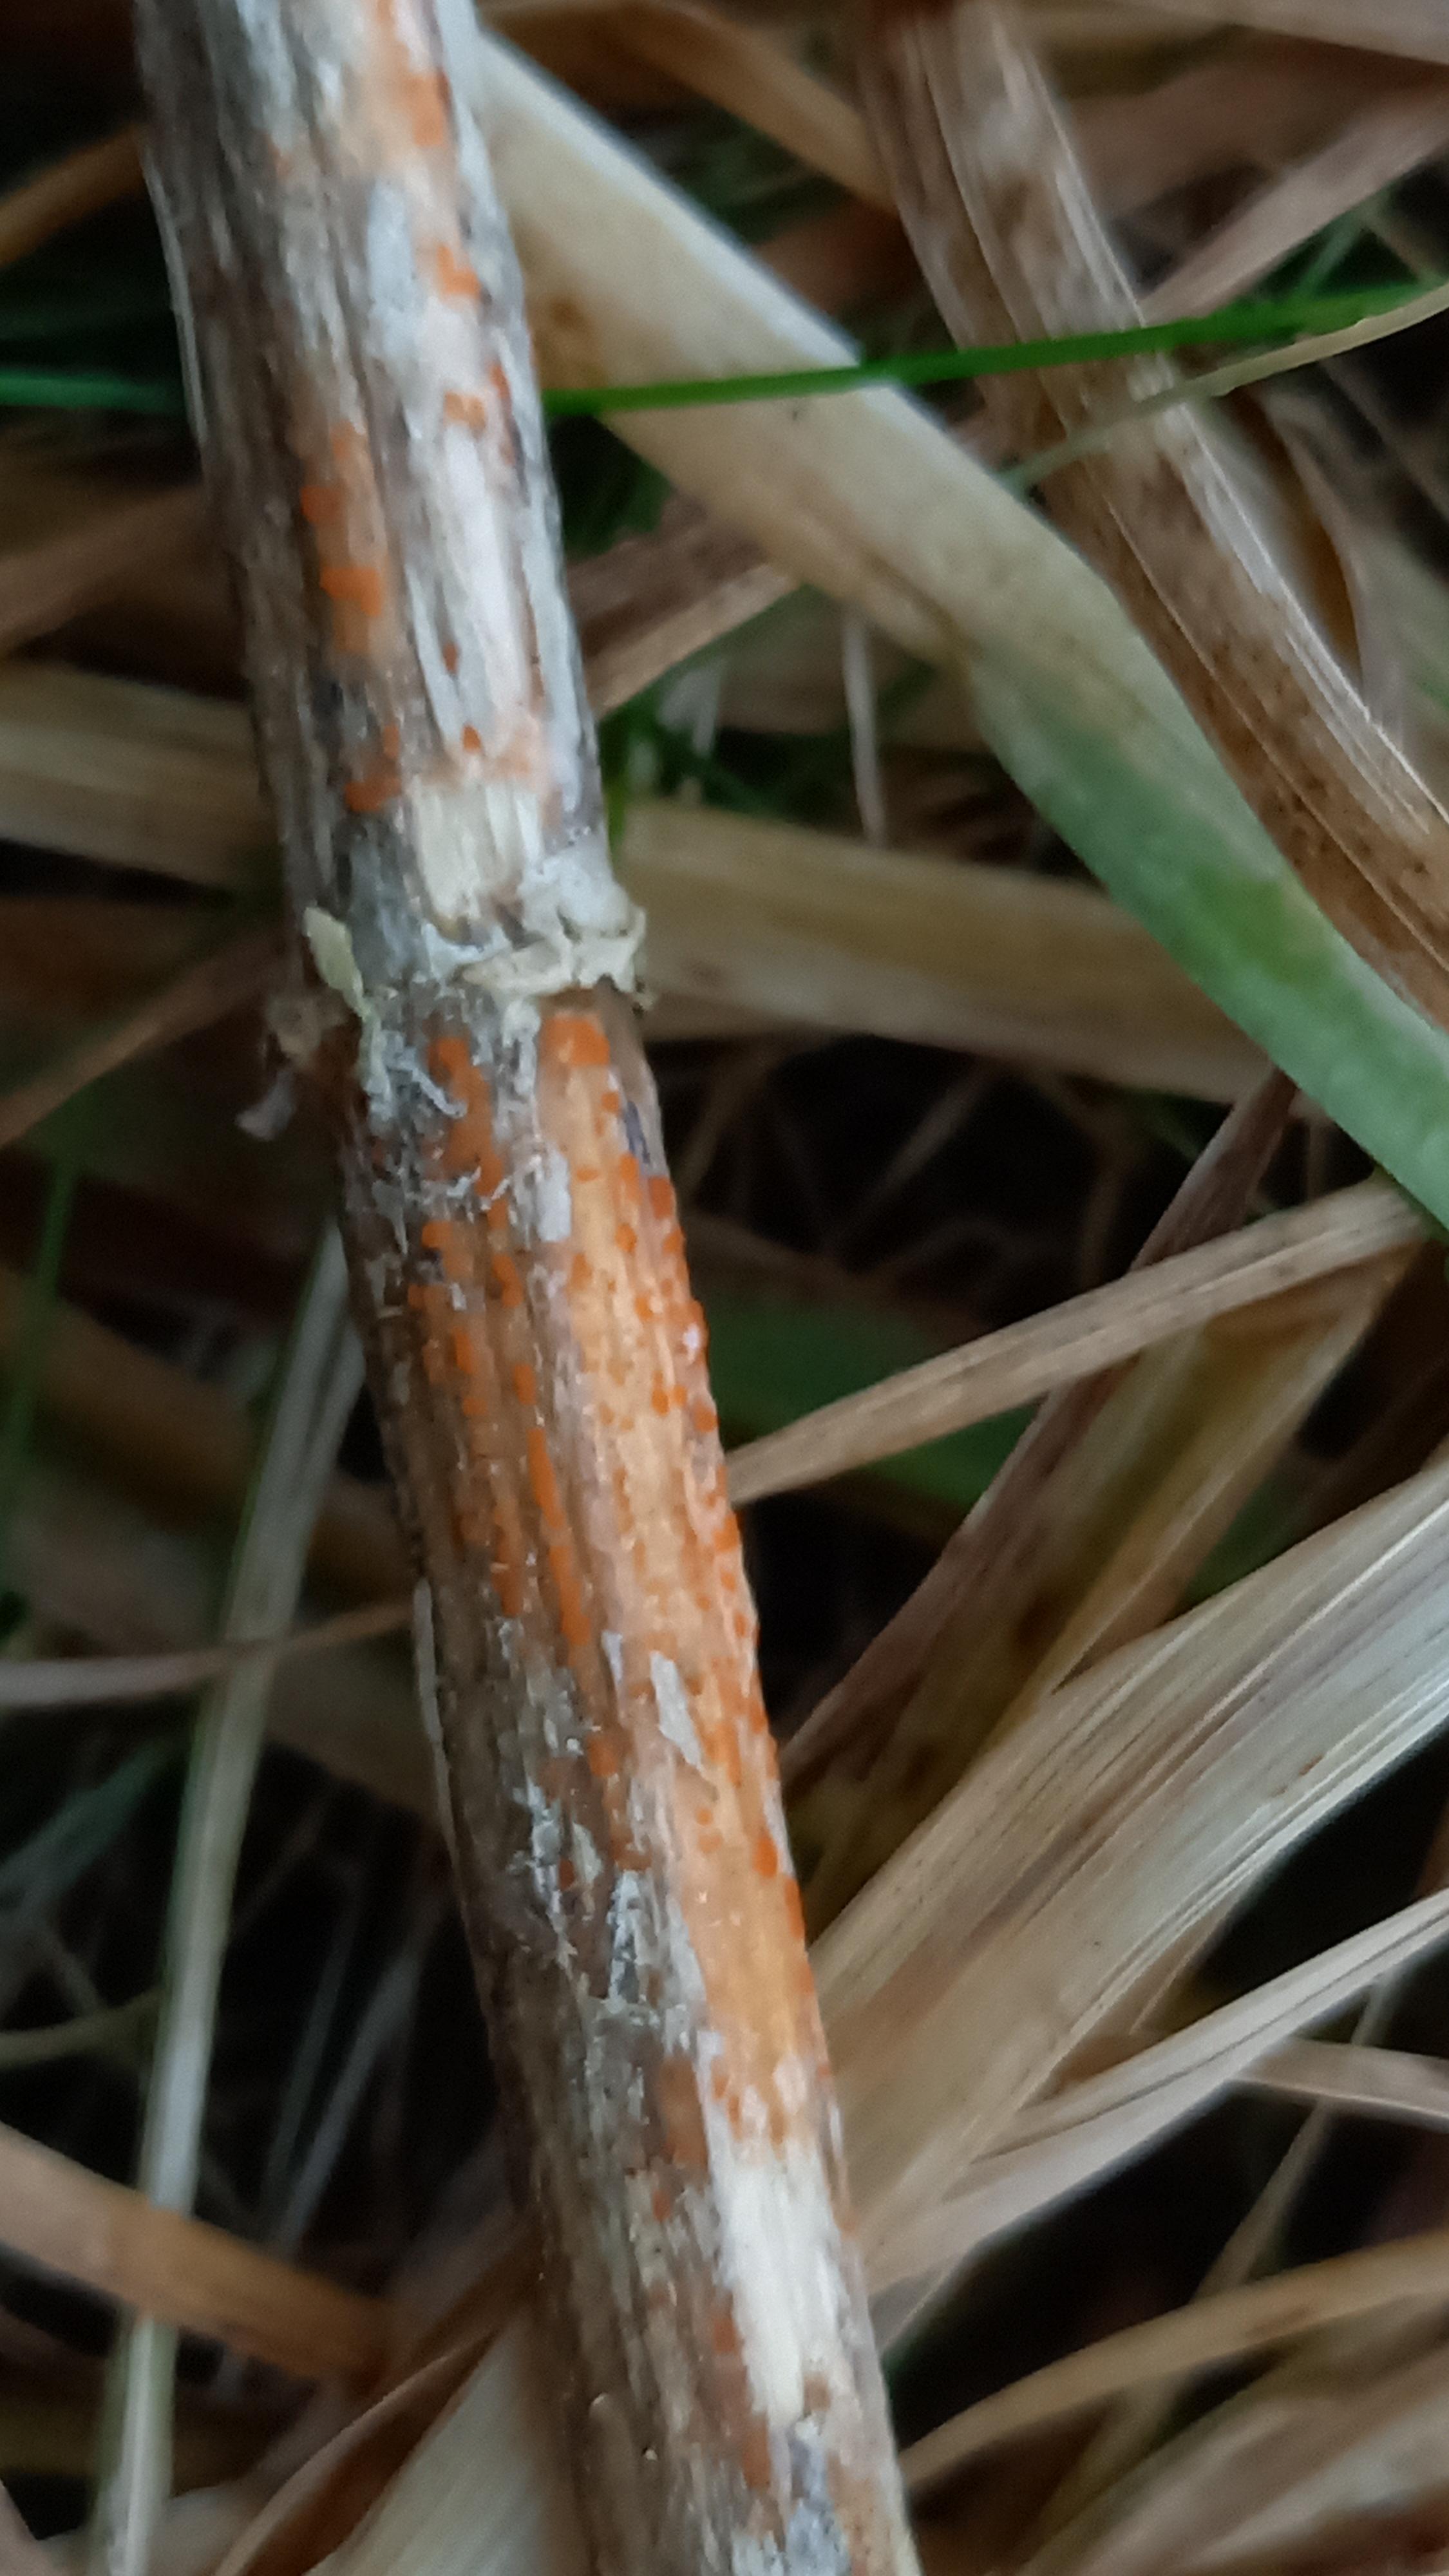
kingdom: Fungi
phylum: Ascomycota
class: Leotiomycetes
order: Helotiales
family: Calloriaceae
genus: Calloria
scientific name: Calloria urticae
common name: nælde-orangeskive
